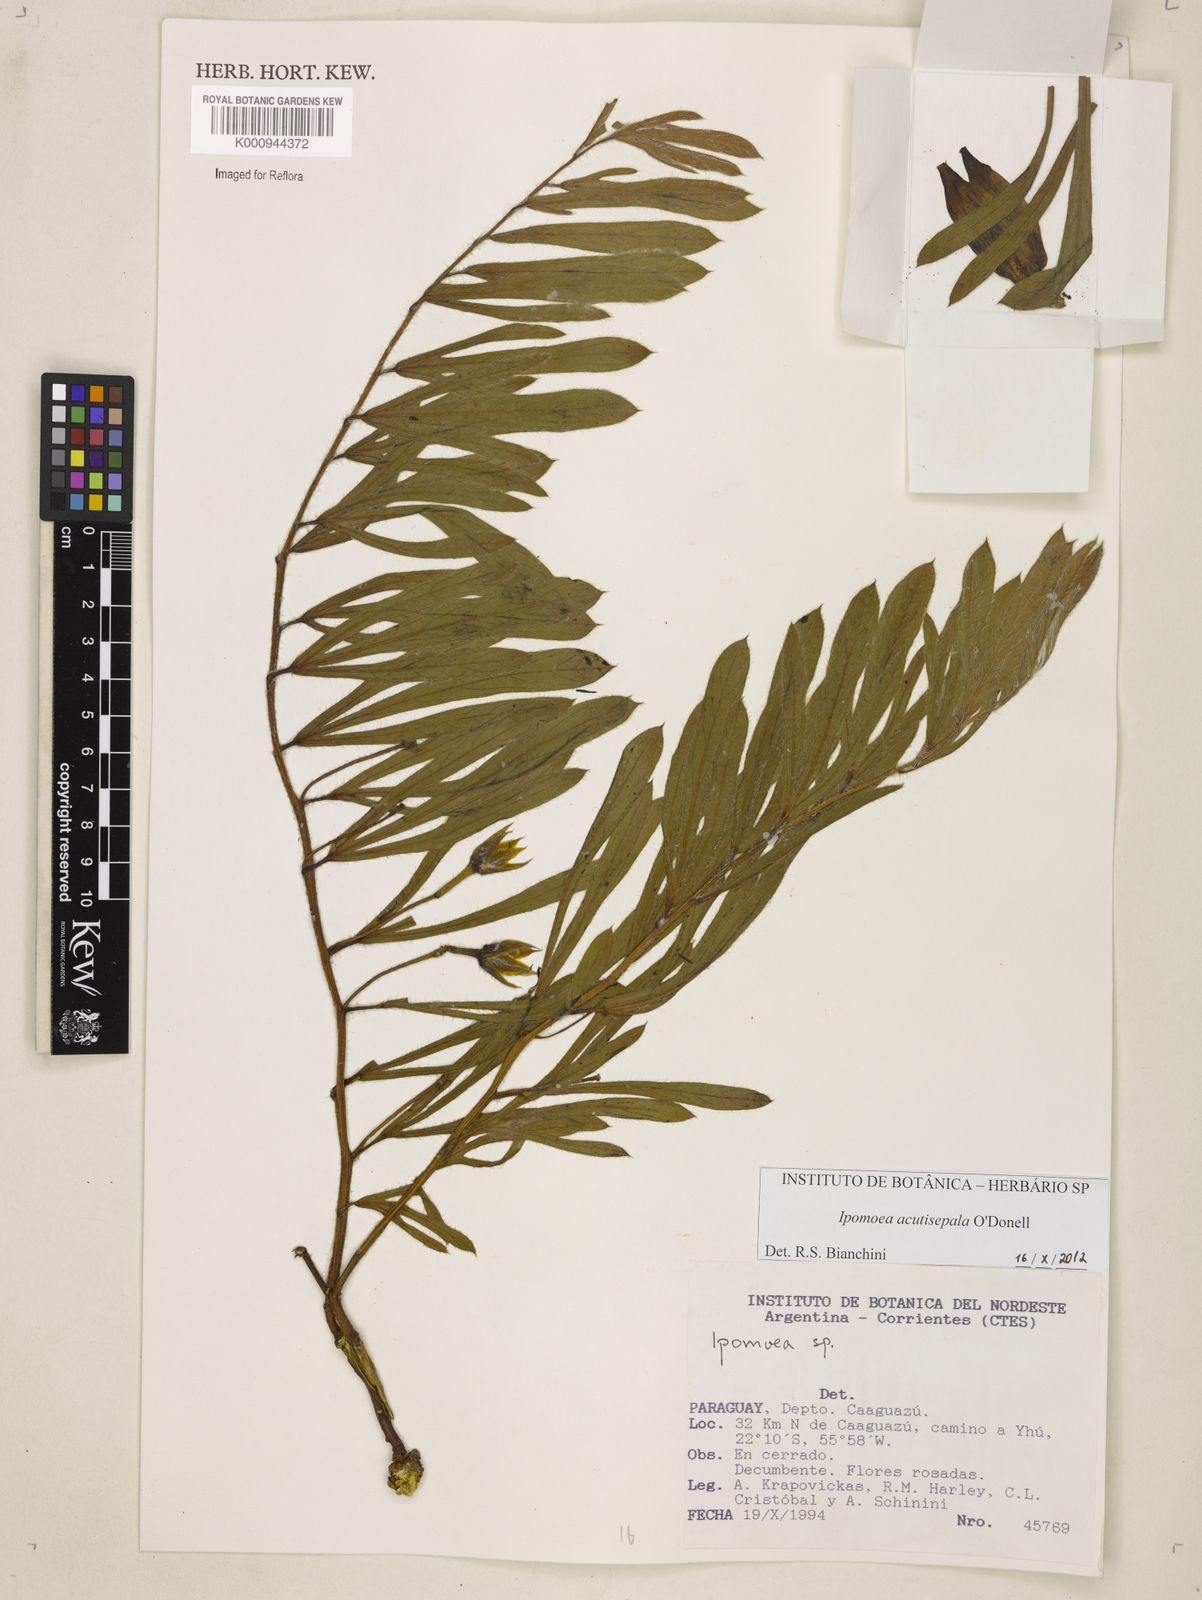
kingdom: Plantae
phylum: Tracheophyta
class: Magnoliopsida
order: Solanales
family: Convolvulaceae
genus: Ipomoea
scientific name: Ipomoea megalantha
